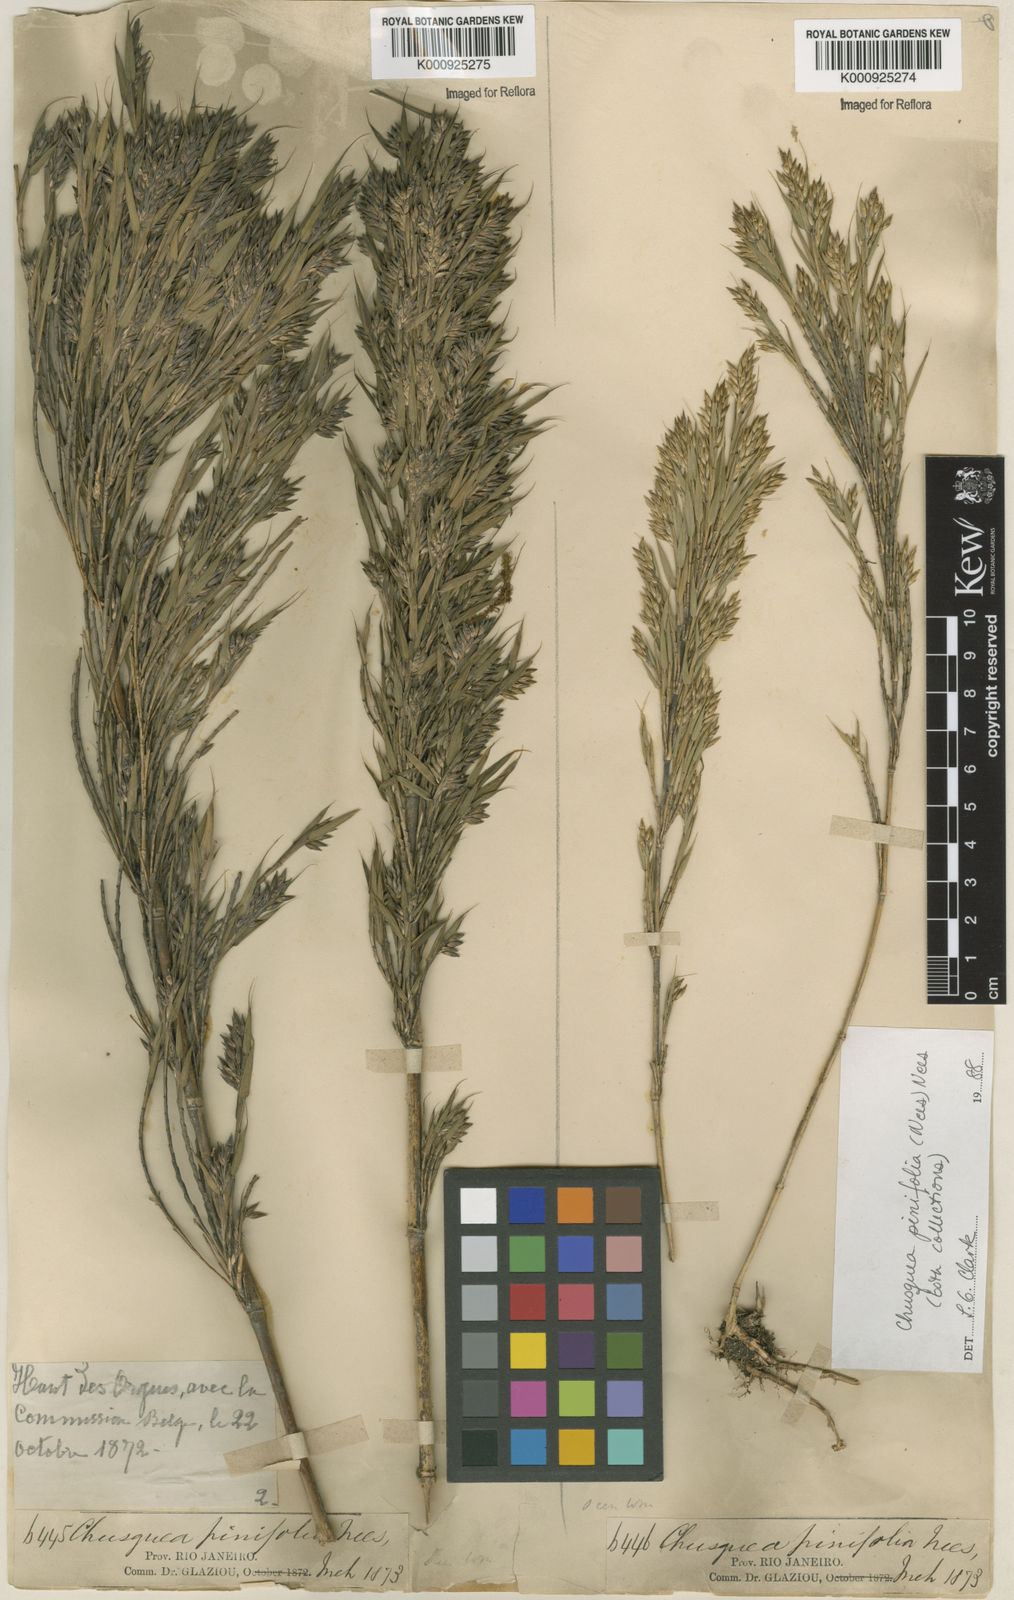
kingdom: Plantae
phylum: Tracheophyta
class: Liliopsida
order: Poales
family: Poaceae
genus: Chusquea
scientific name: Chusquea pinifolia
